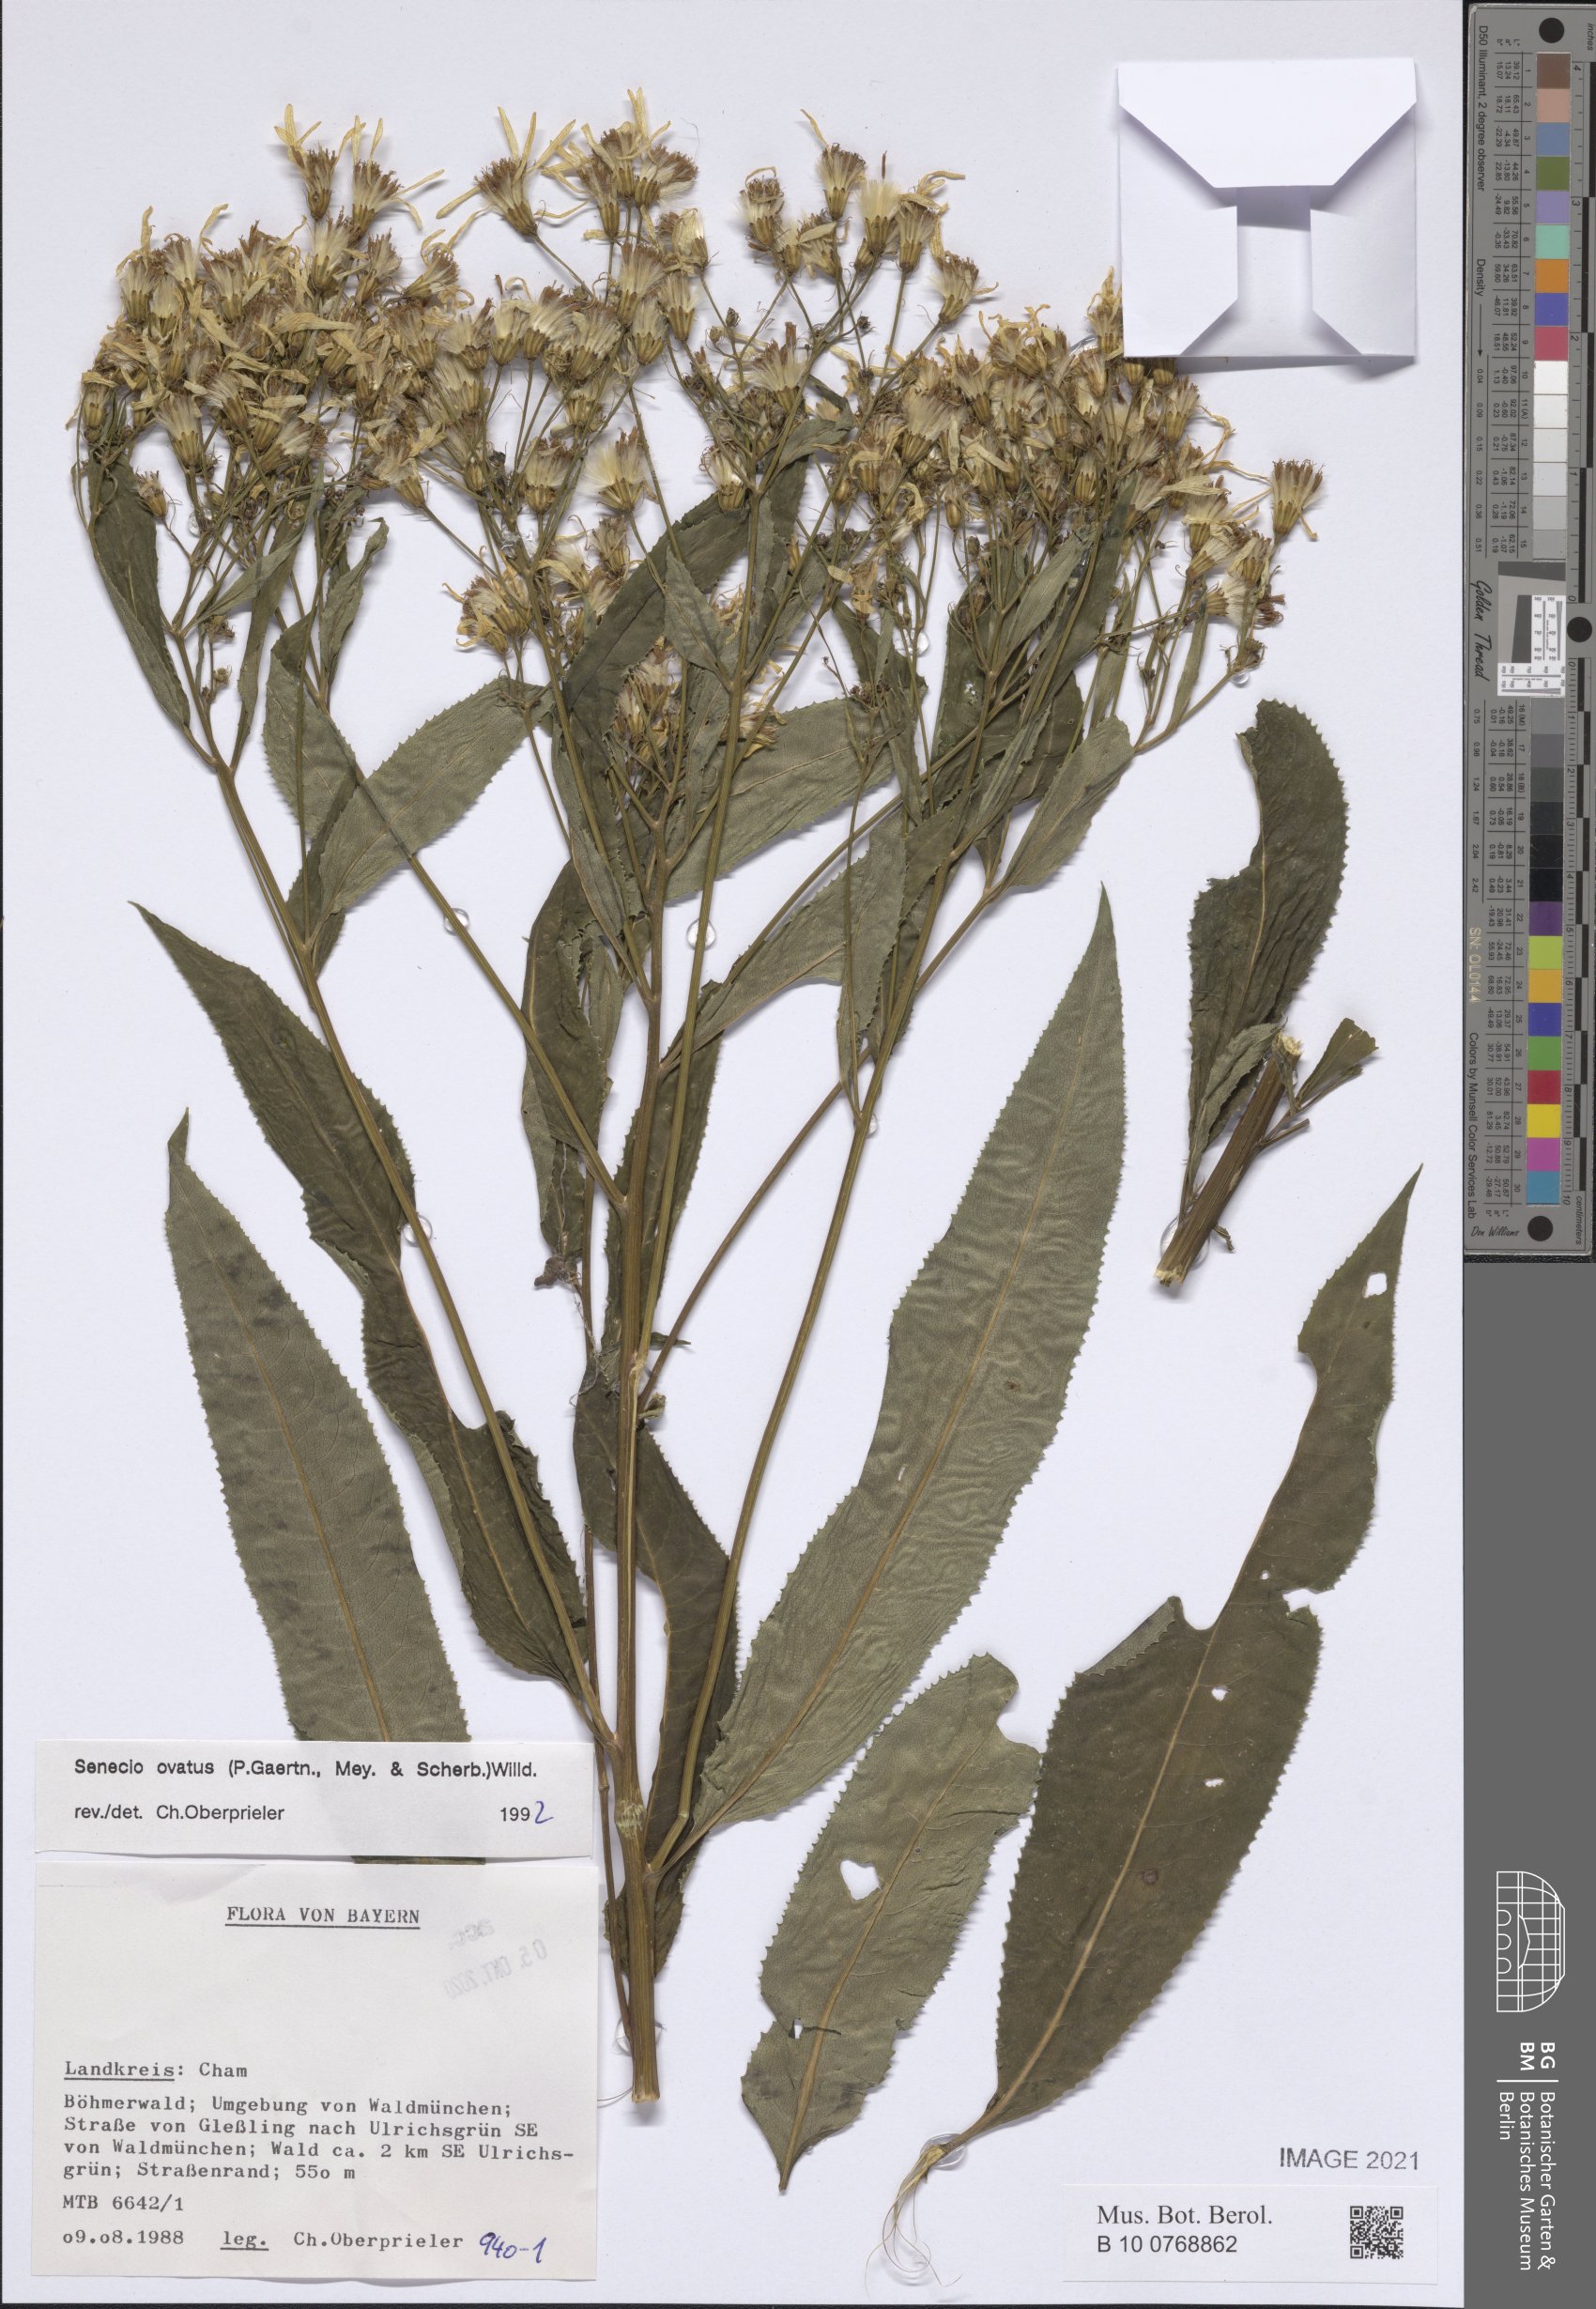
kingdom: Plantae
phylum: Tracheophyta
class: Magnoliopsida
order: Asterales
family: Asteraceae
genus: Senecio
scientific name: Senecio ovatus
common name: Wood ragwort
